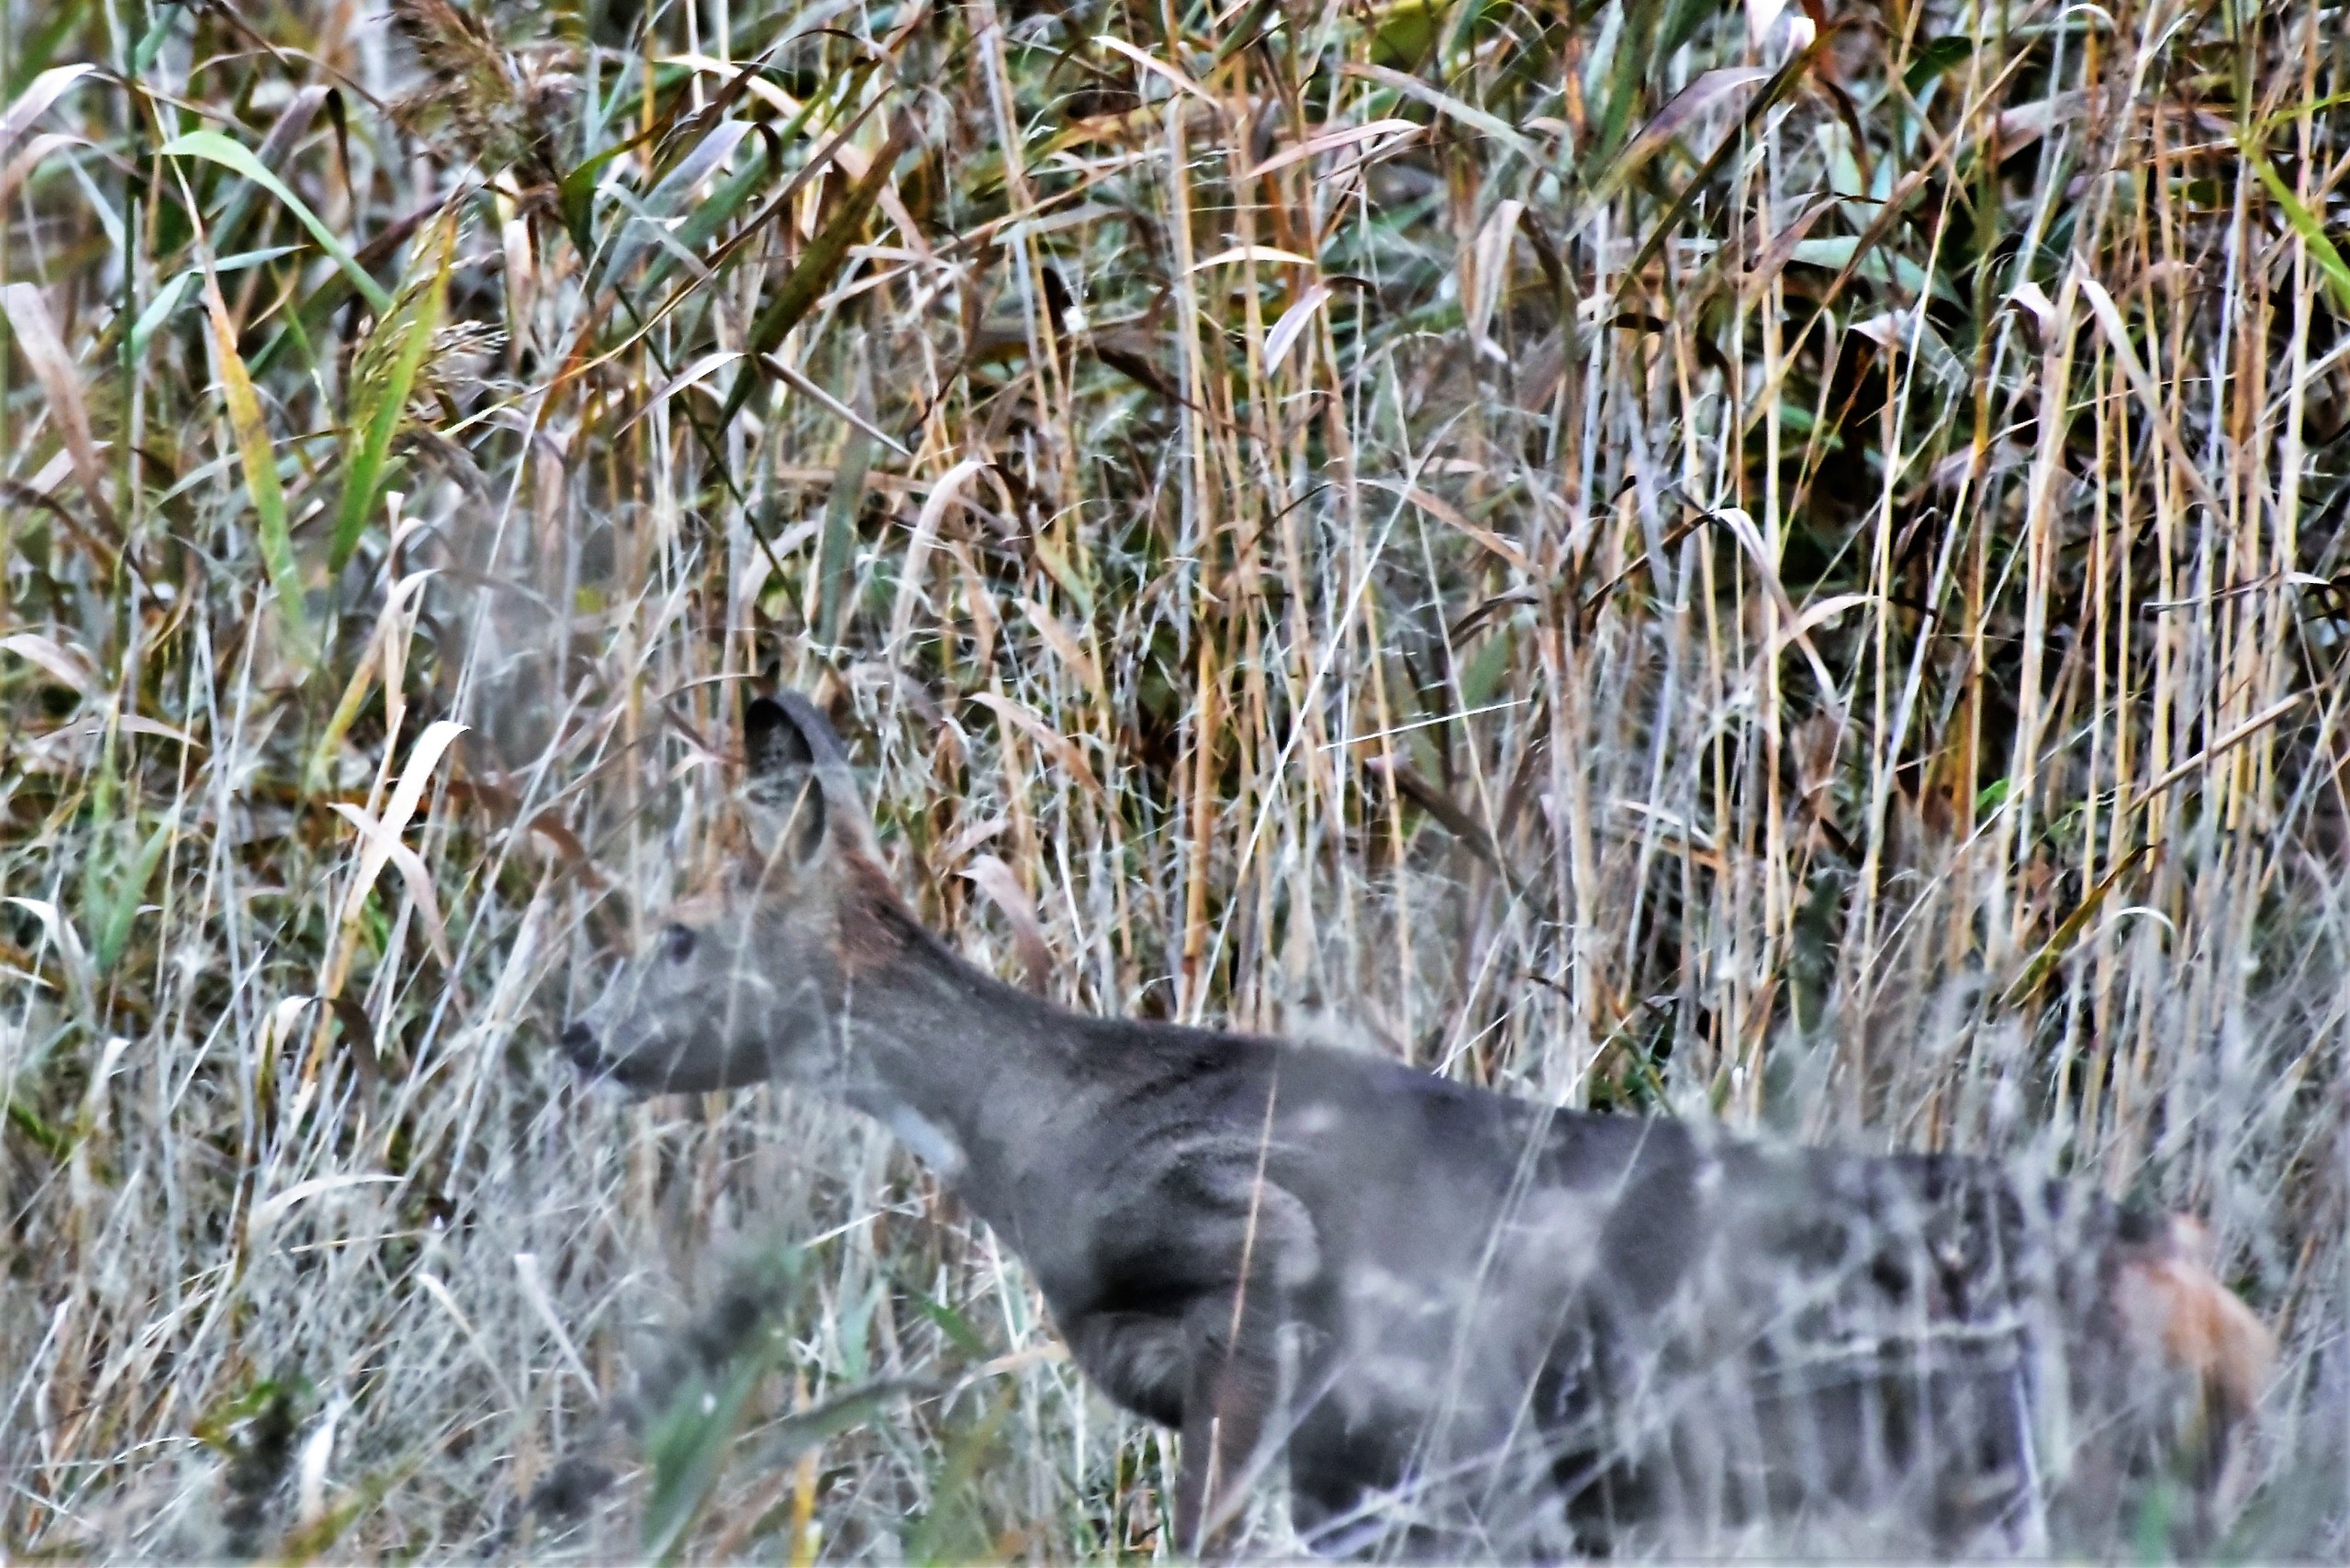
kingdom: Animalia
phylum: Chordata
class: Mammalia
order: Artiodactyla
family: Cervidae
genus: Capreolus
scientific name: Capreolus capreolus
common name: Rådyr
